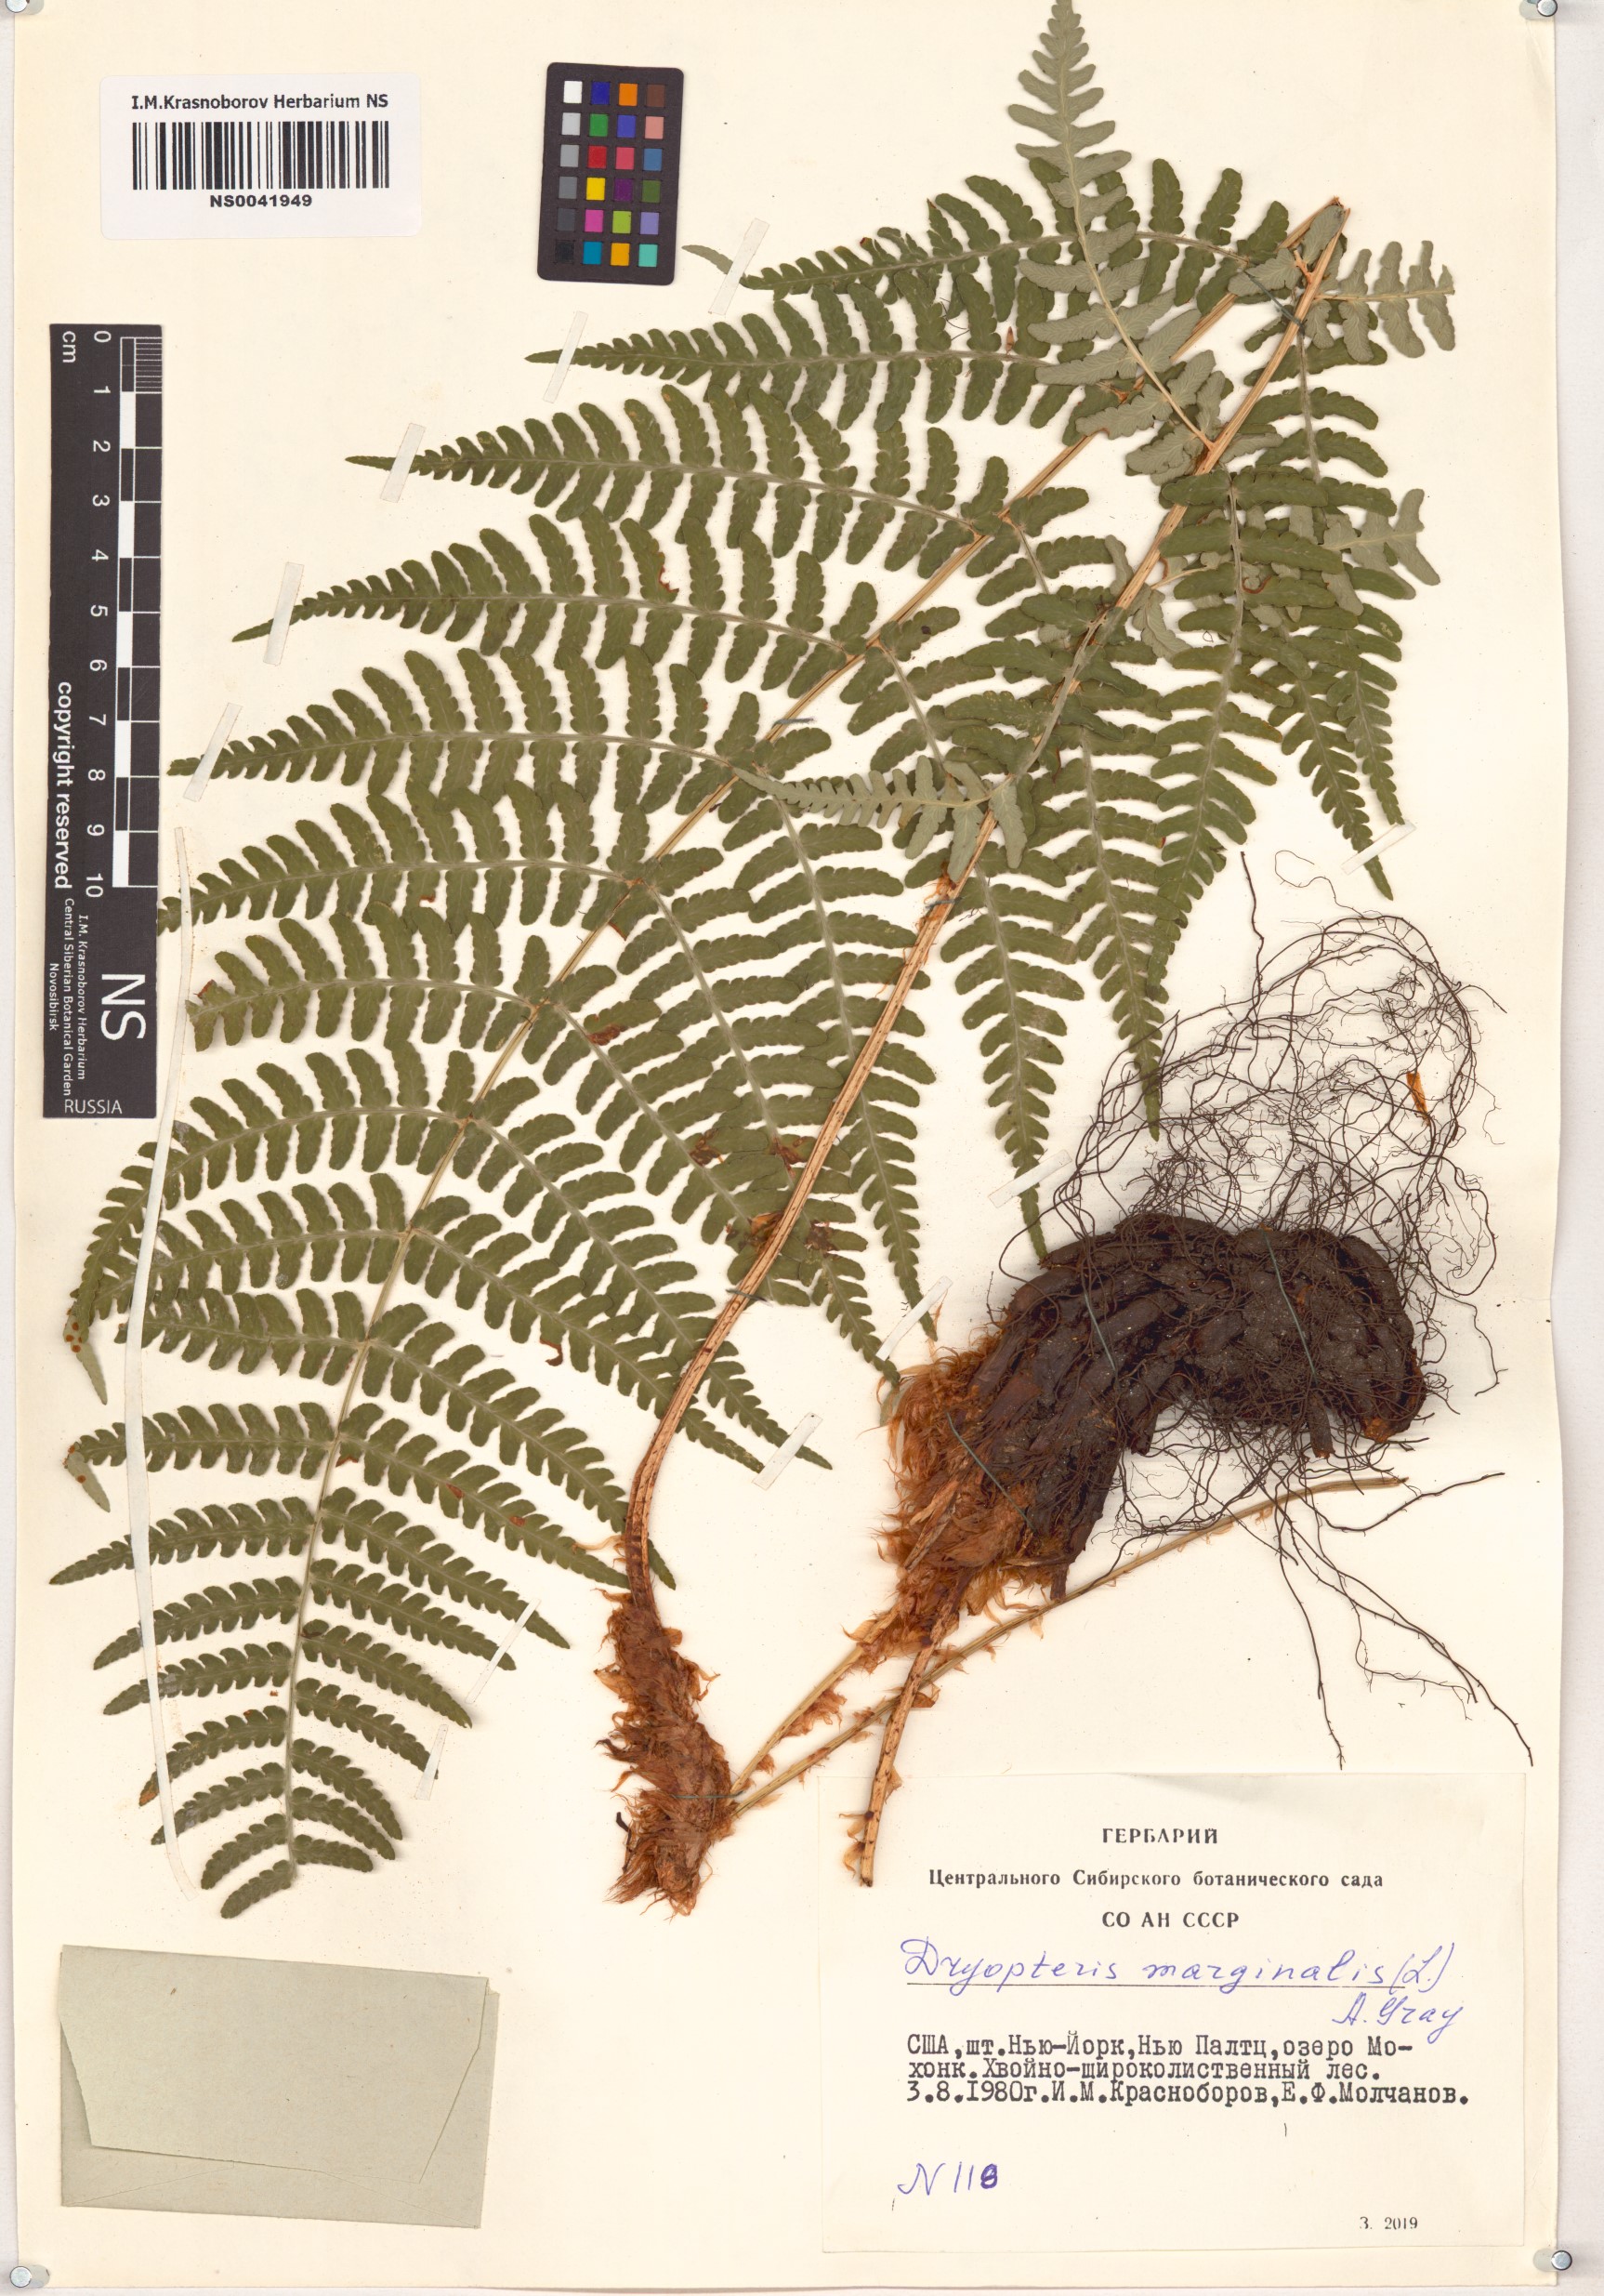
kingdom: Plantae
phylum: Tracheophyta
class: Polypodiopsida
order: Polypodiales
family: Dryopteridaceae
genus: Dryopteris
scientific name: Dryopteris marginalis
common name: Marginal wood fern
